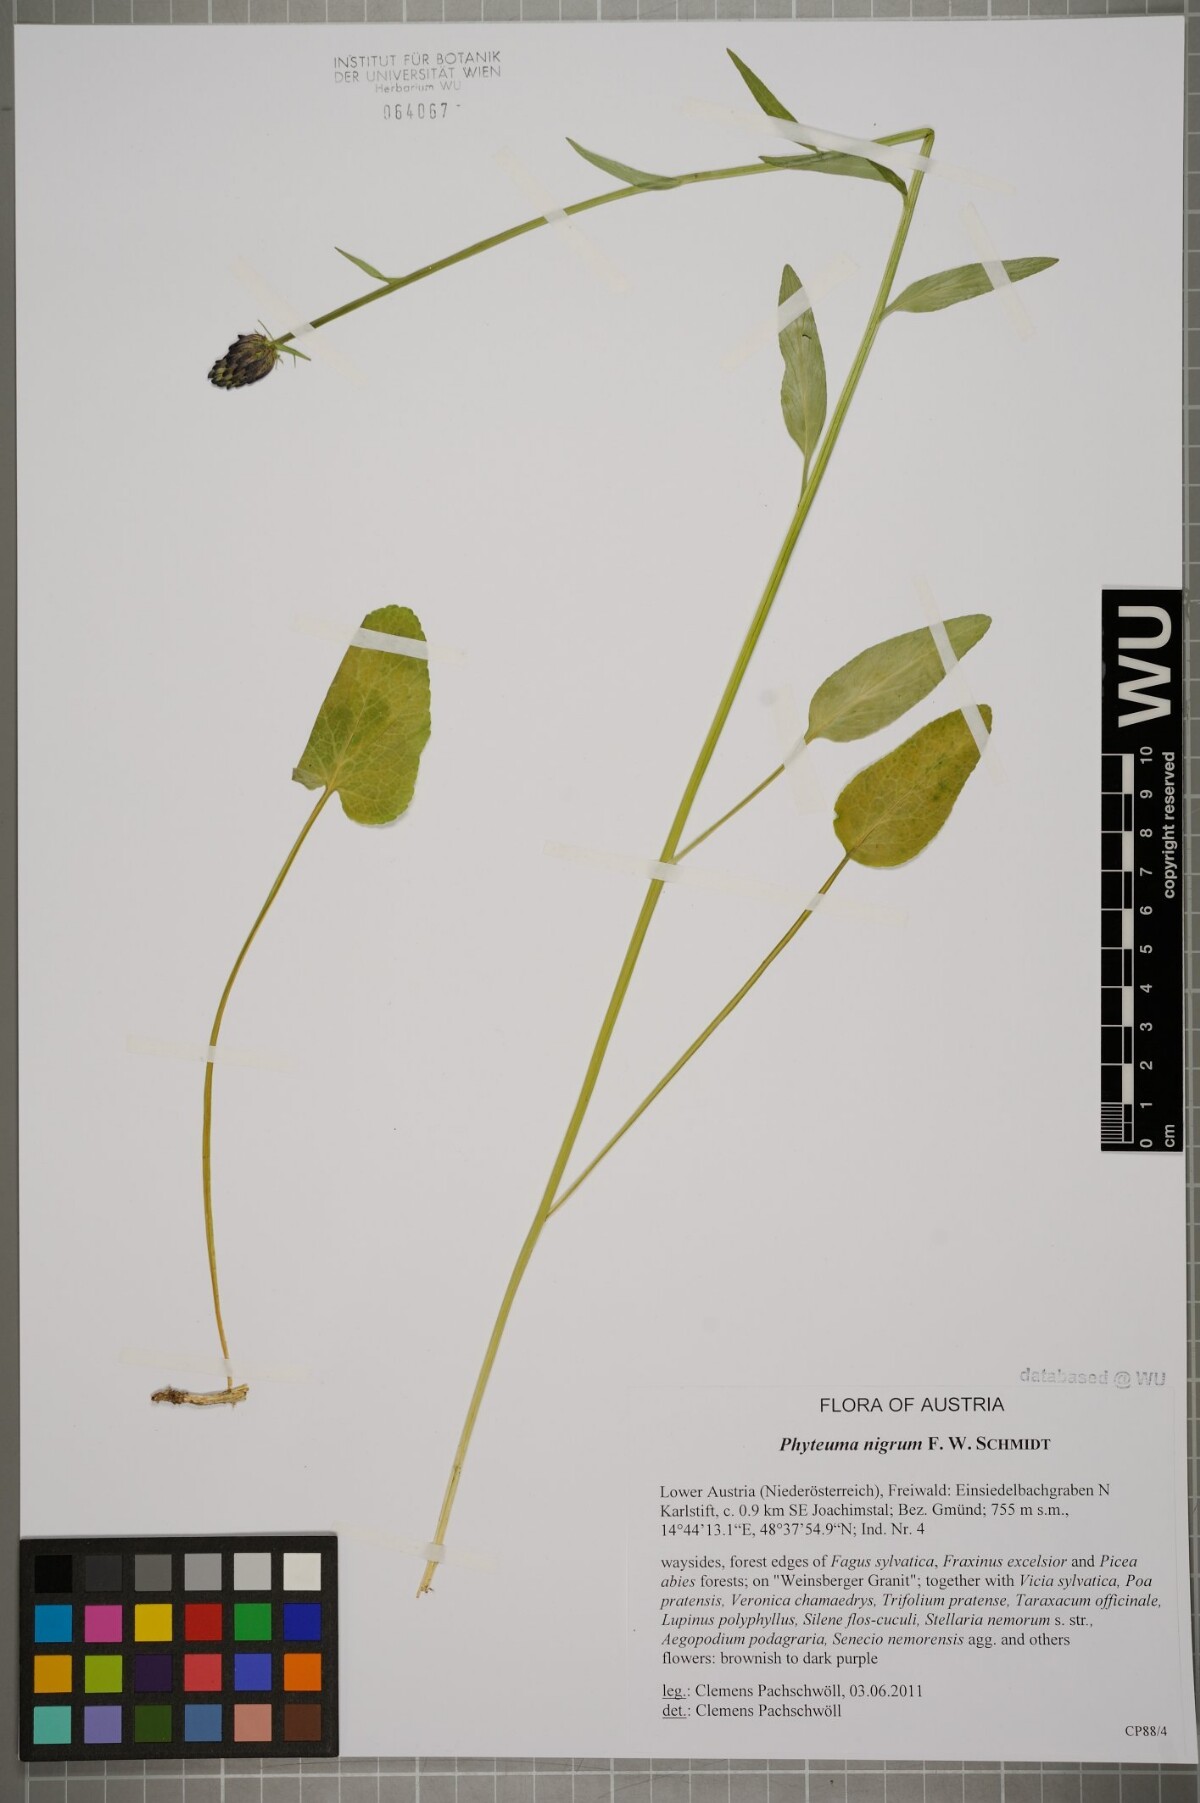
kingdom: Plantae
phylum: Tracheophyta
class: Magnoliopsida
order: Asterales
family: Campanulaceae
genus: Phyteuma
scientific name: Phyteuma nigrum
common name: Black rampion
